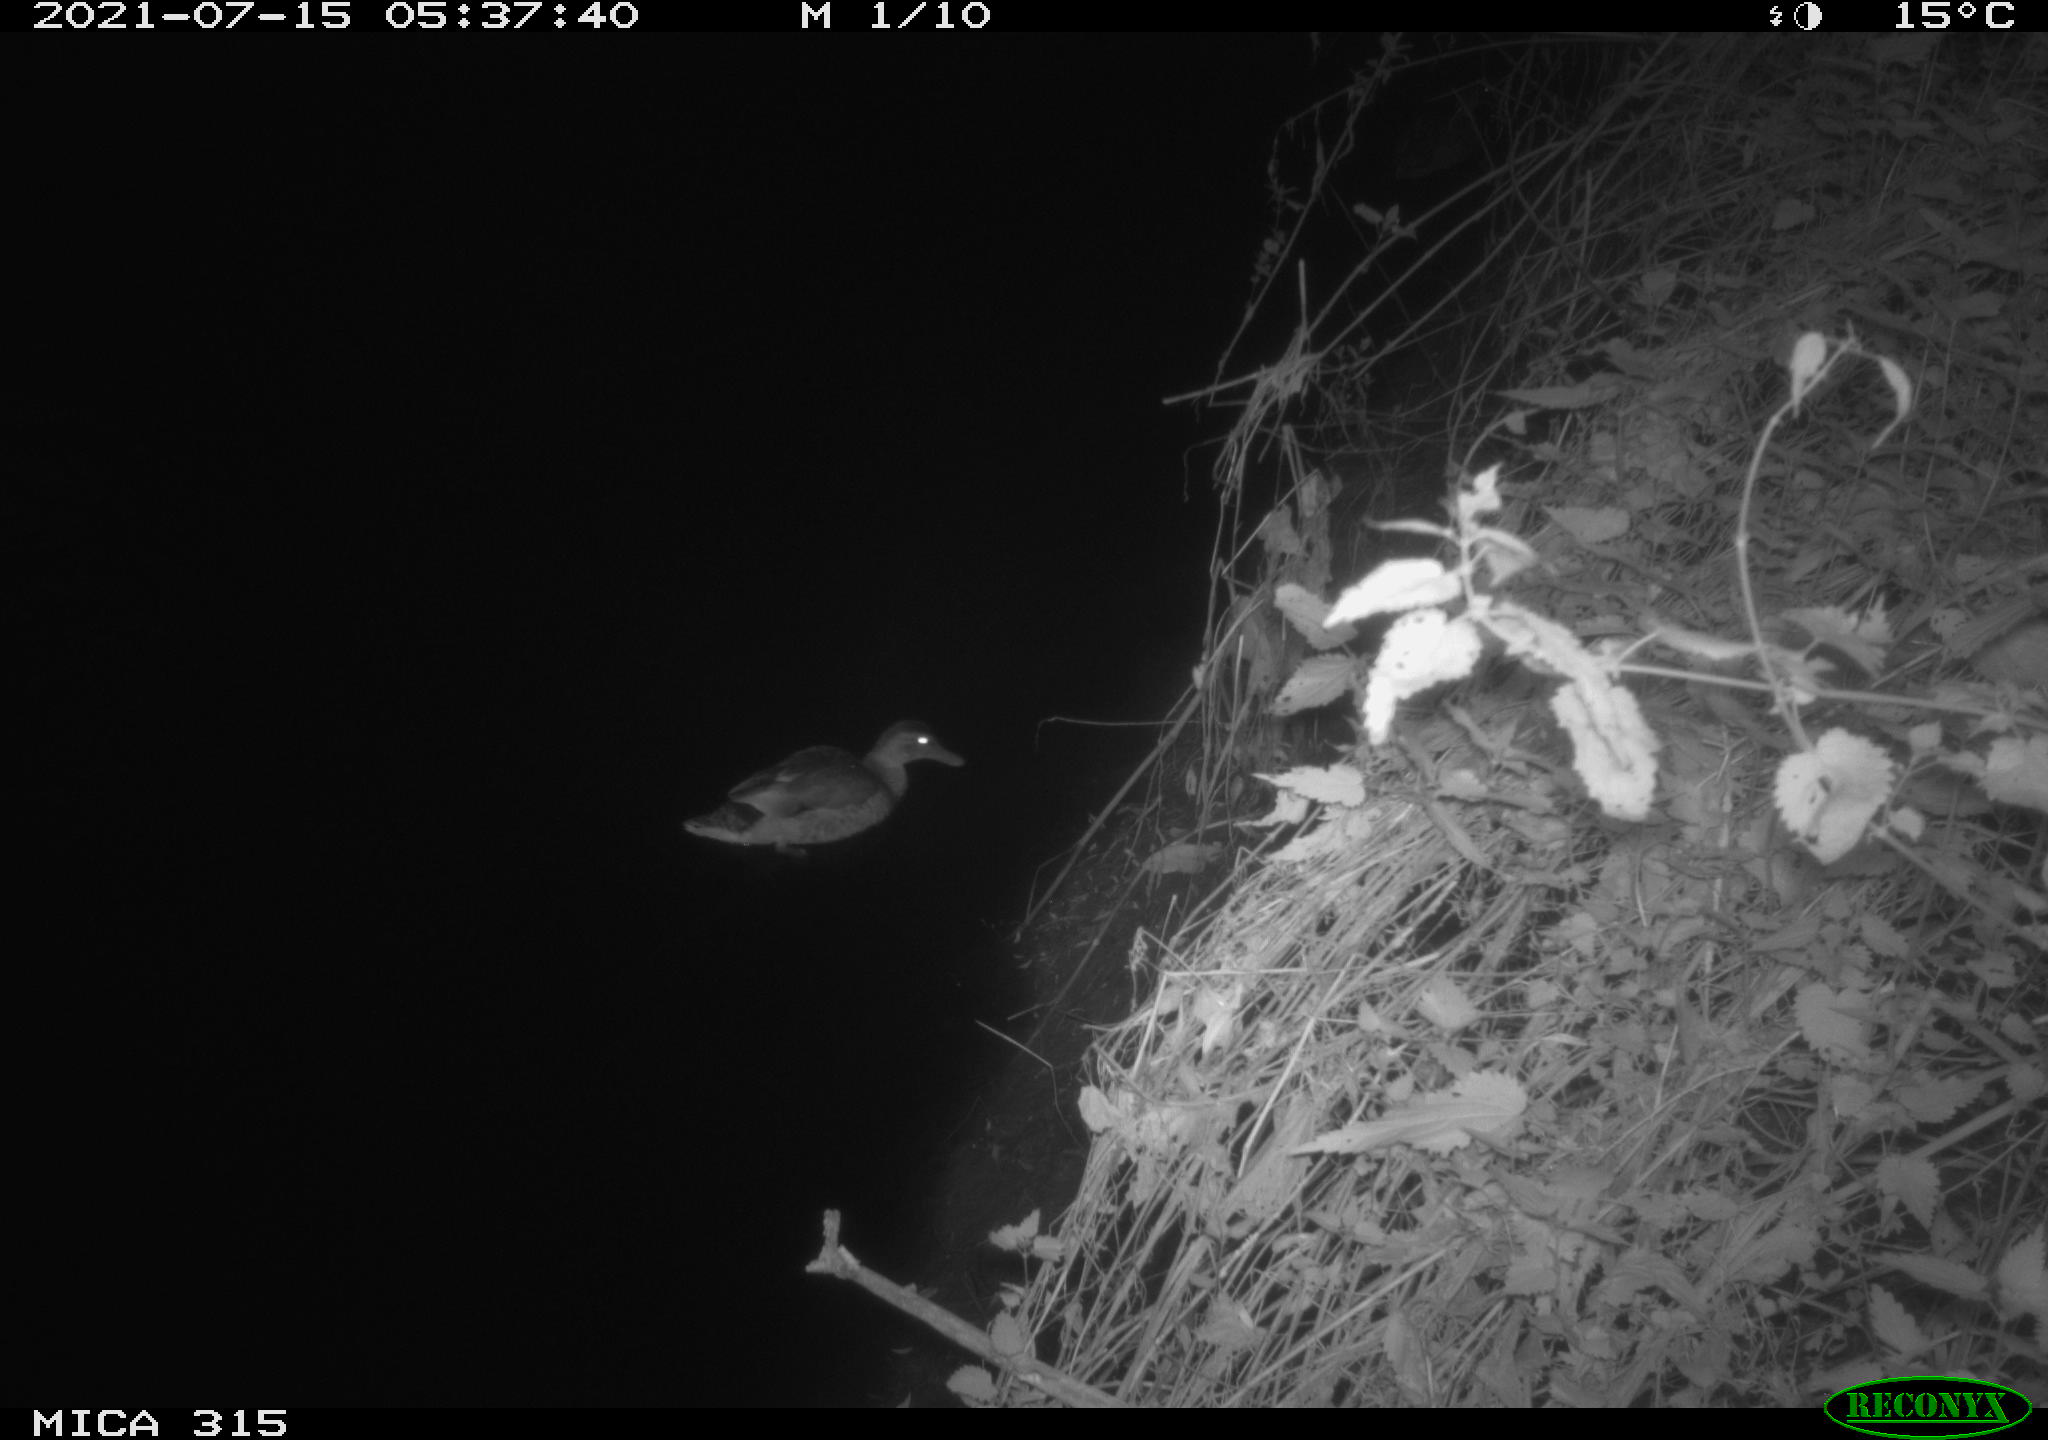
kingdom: Animalia
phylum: Chordata
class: Aves
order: Anseriformes
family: Anatidae
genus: Anas
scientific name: Anas platyrhynchos
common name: Mallard
